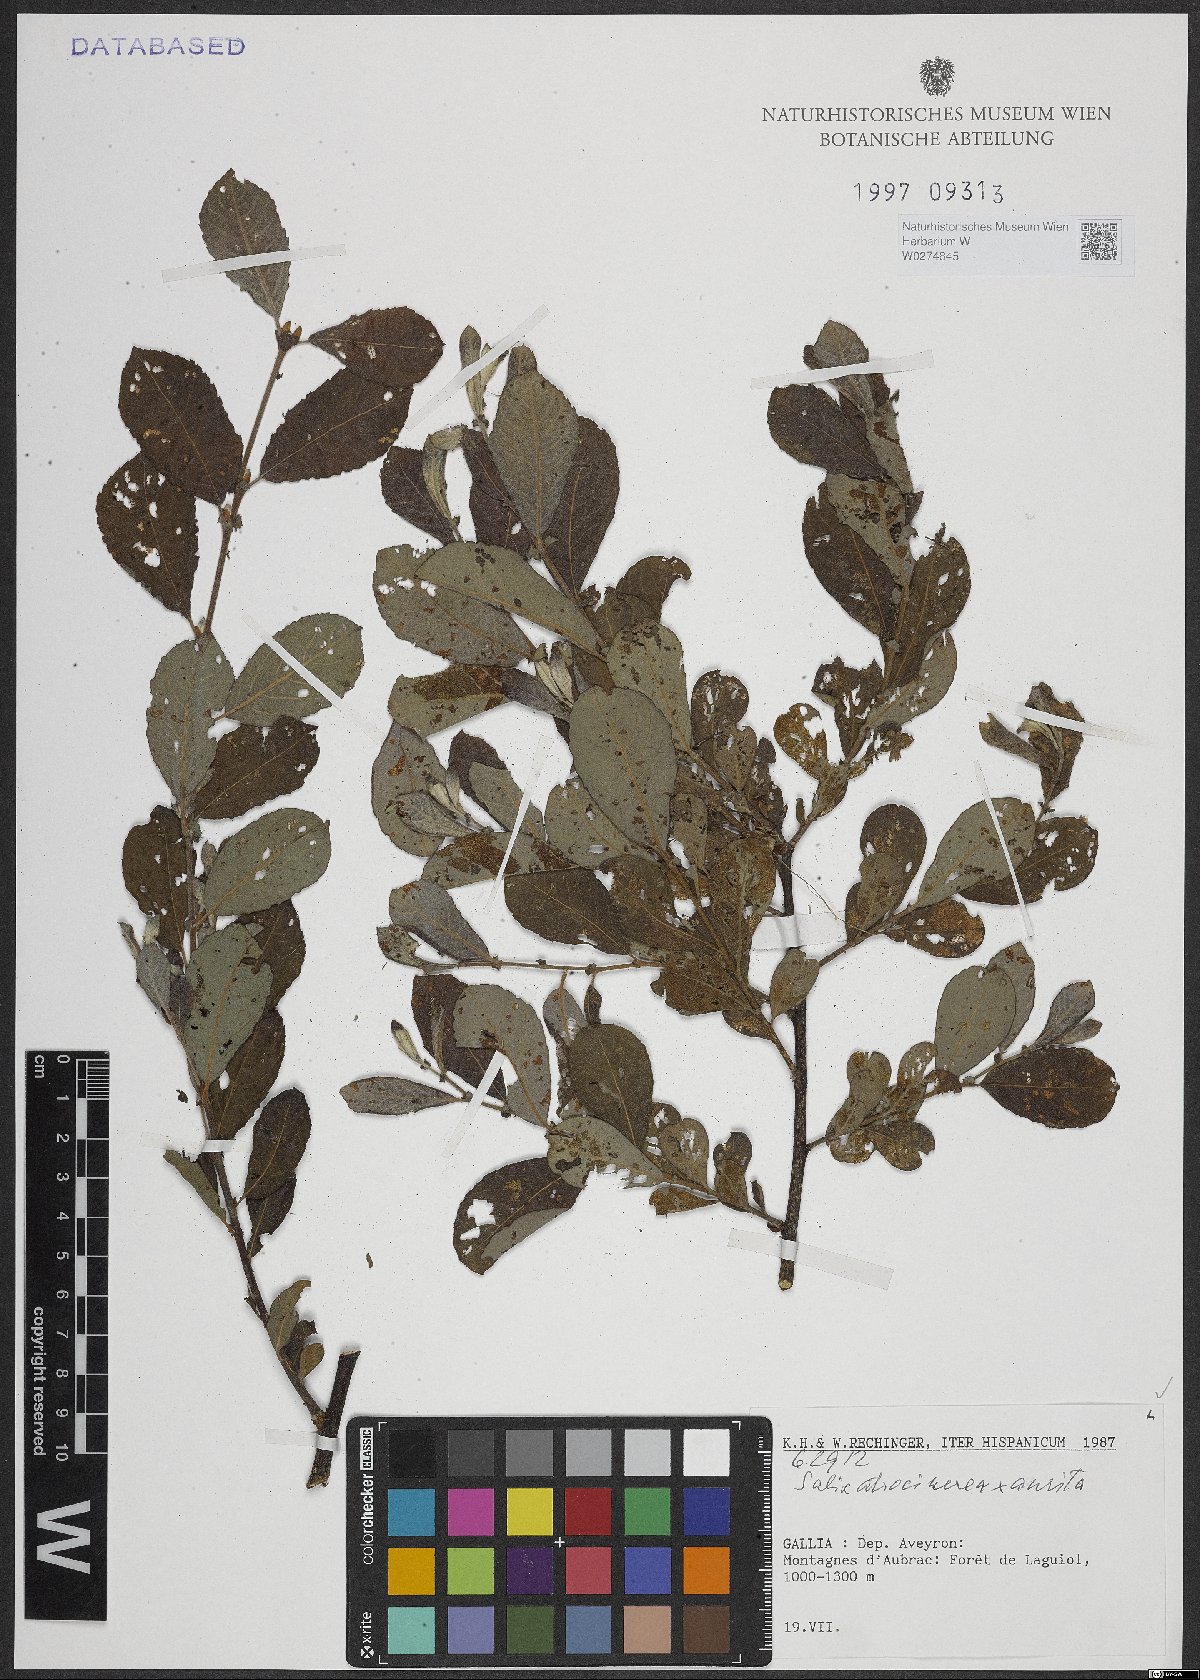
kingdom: Plantae
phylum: Tracheophyta
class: Magnoliopsida
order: Malpighiales
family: Salicaceae
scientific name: Salicaceae
